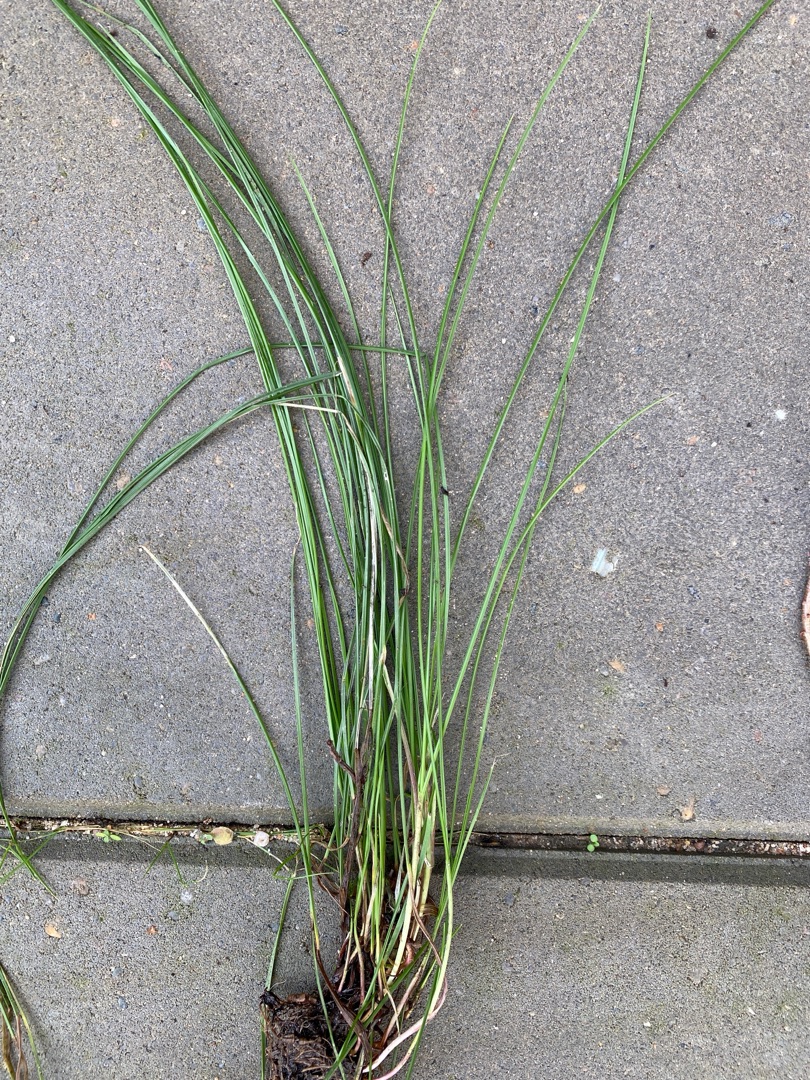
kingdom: Plantae
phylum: Tracheophyta
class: Liliopsida
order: Poales
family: Poaceae
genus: Festuca
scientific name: Festuca nigrescens
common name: Vej-svingel
